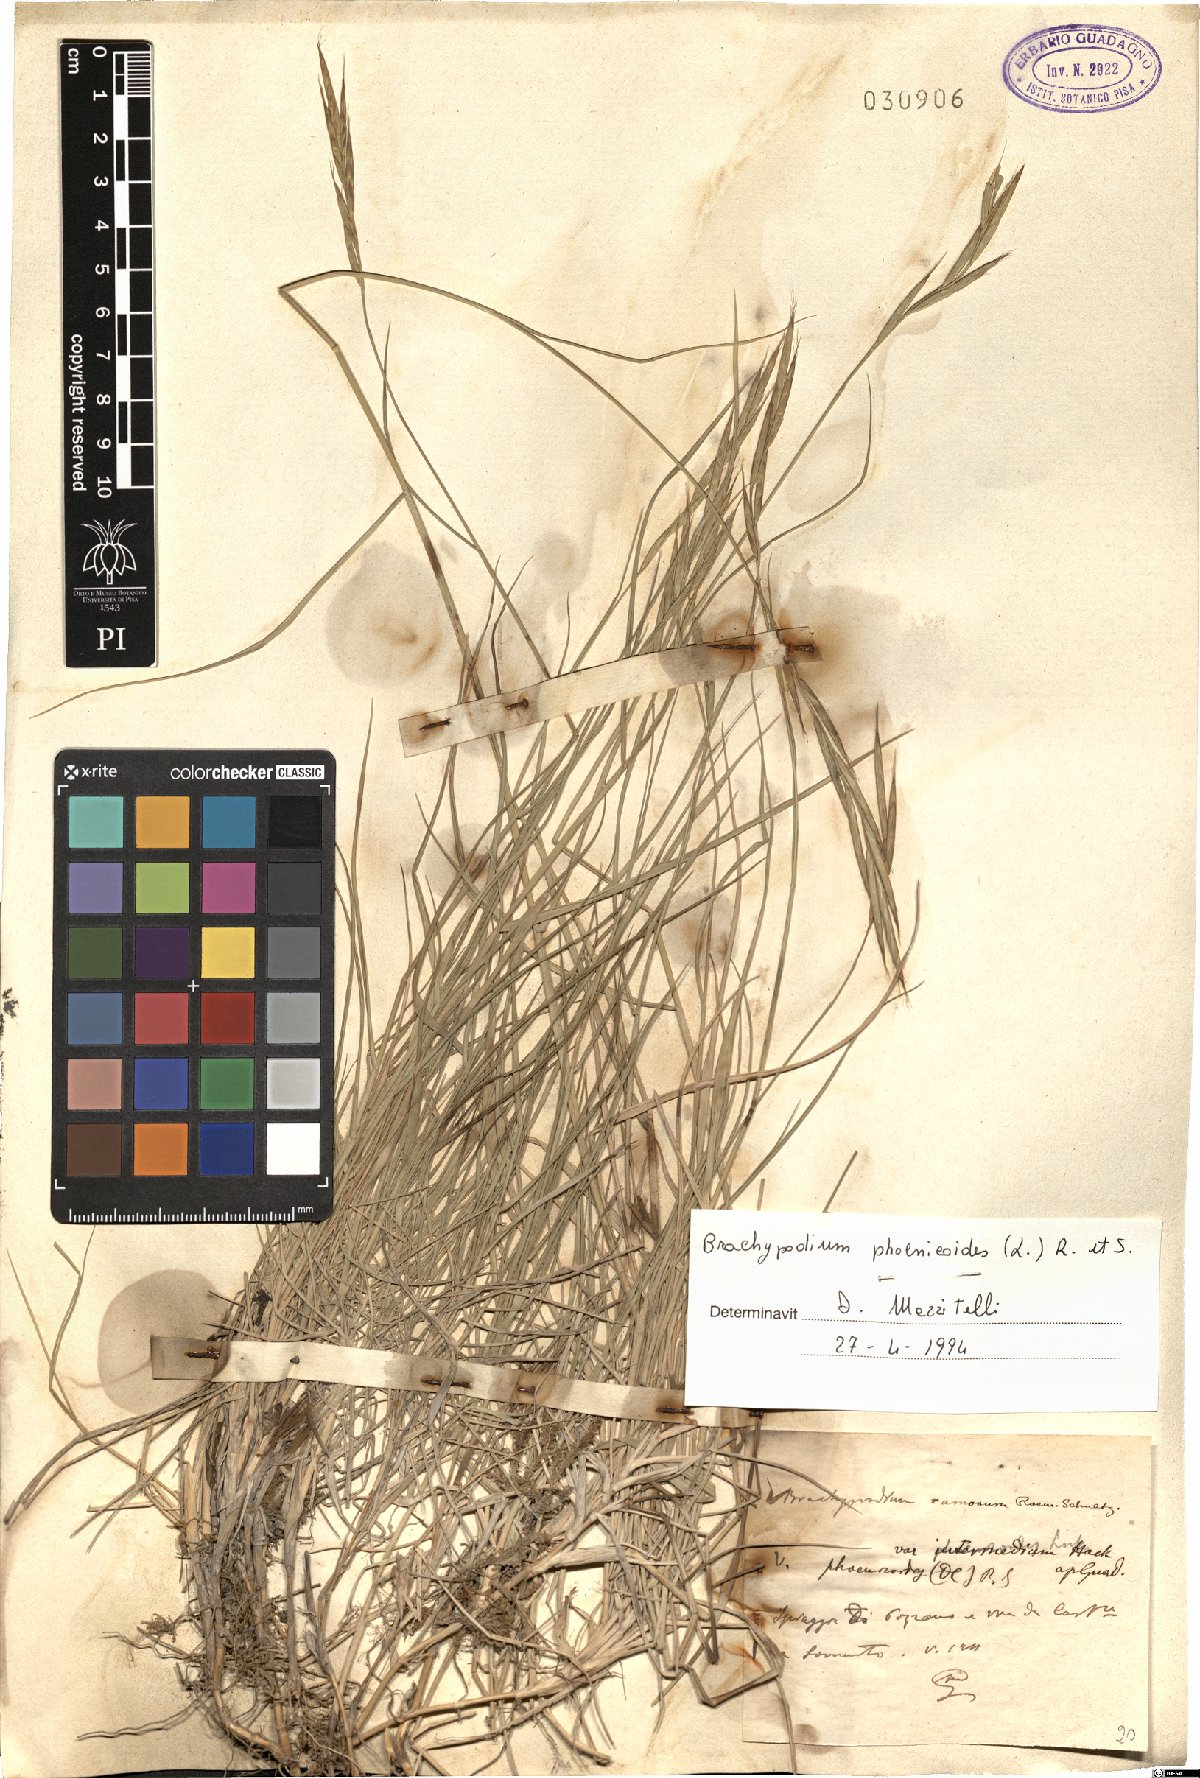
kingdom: Plantae
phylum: Tracheophyta
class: Liliopsida
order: Poales
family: Poaceae
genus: Brachypodium
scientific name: Brachypodium phoenicoides
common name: Thinleaf false brome
